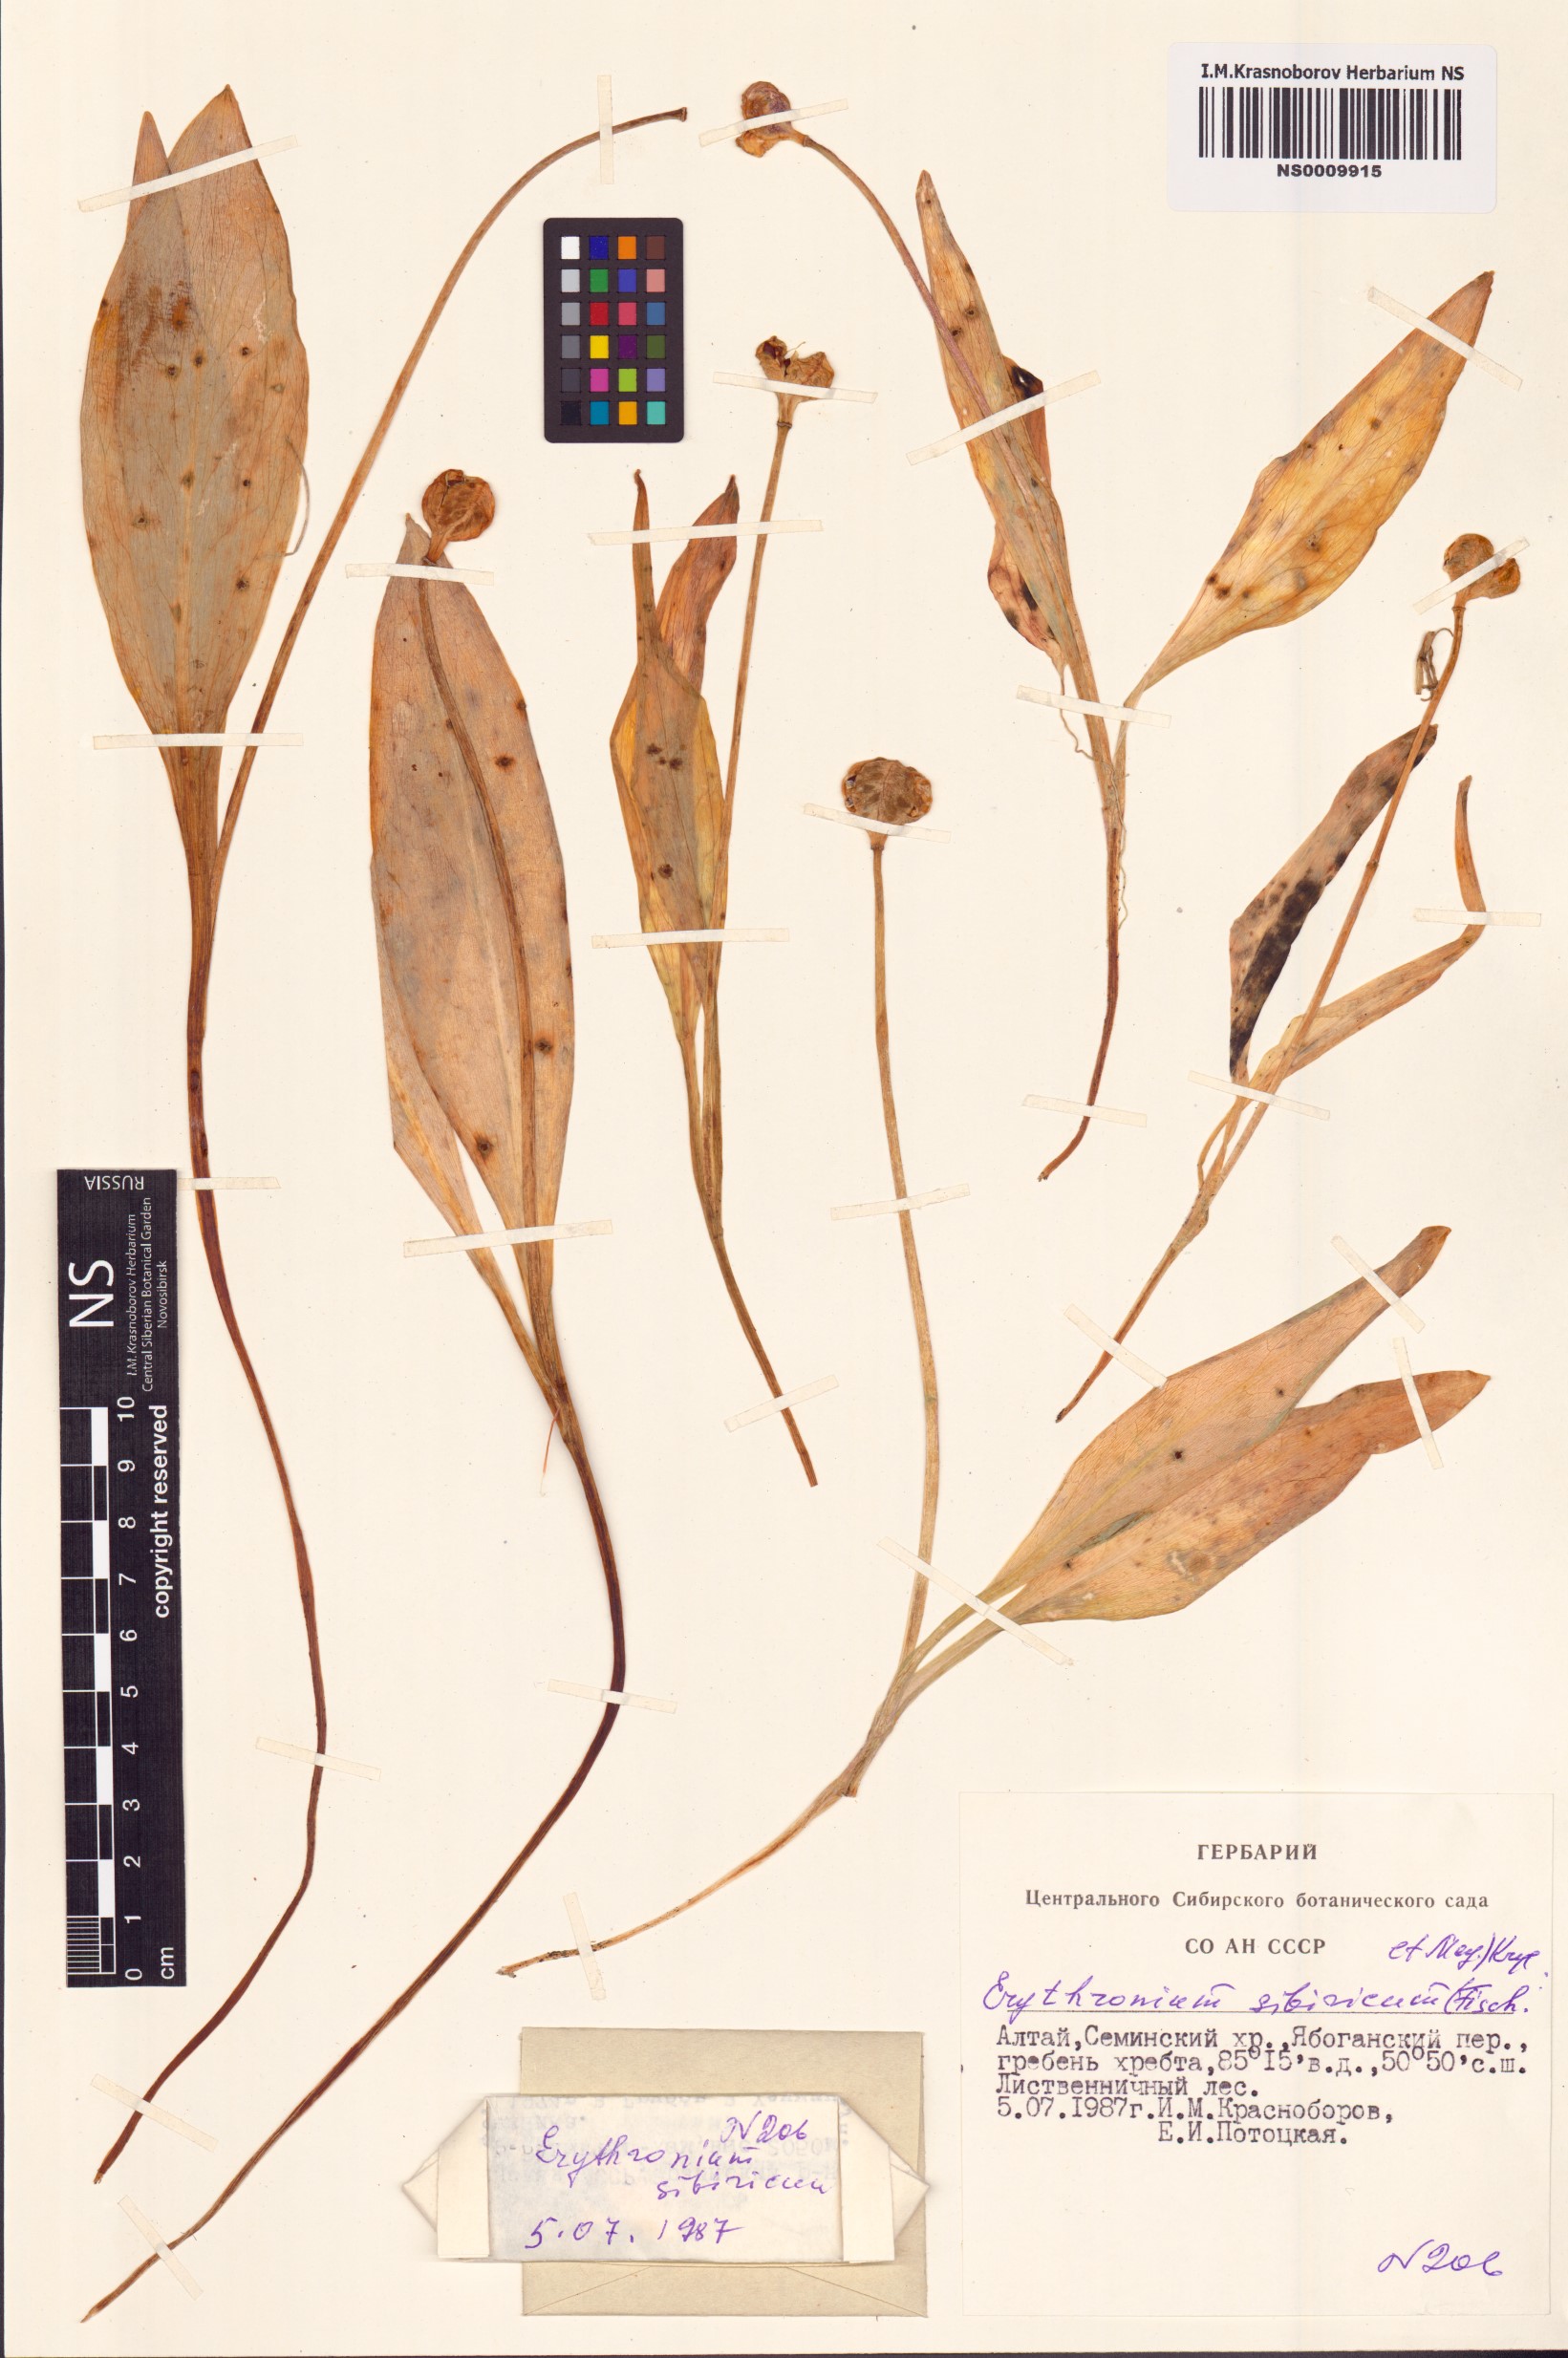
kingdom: Plantae
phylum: Tracheophyta
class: Liliopsida
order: Liliales
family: Liliaceae
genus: Erythronium
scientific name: Erythronium sibiricum
